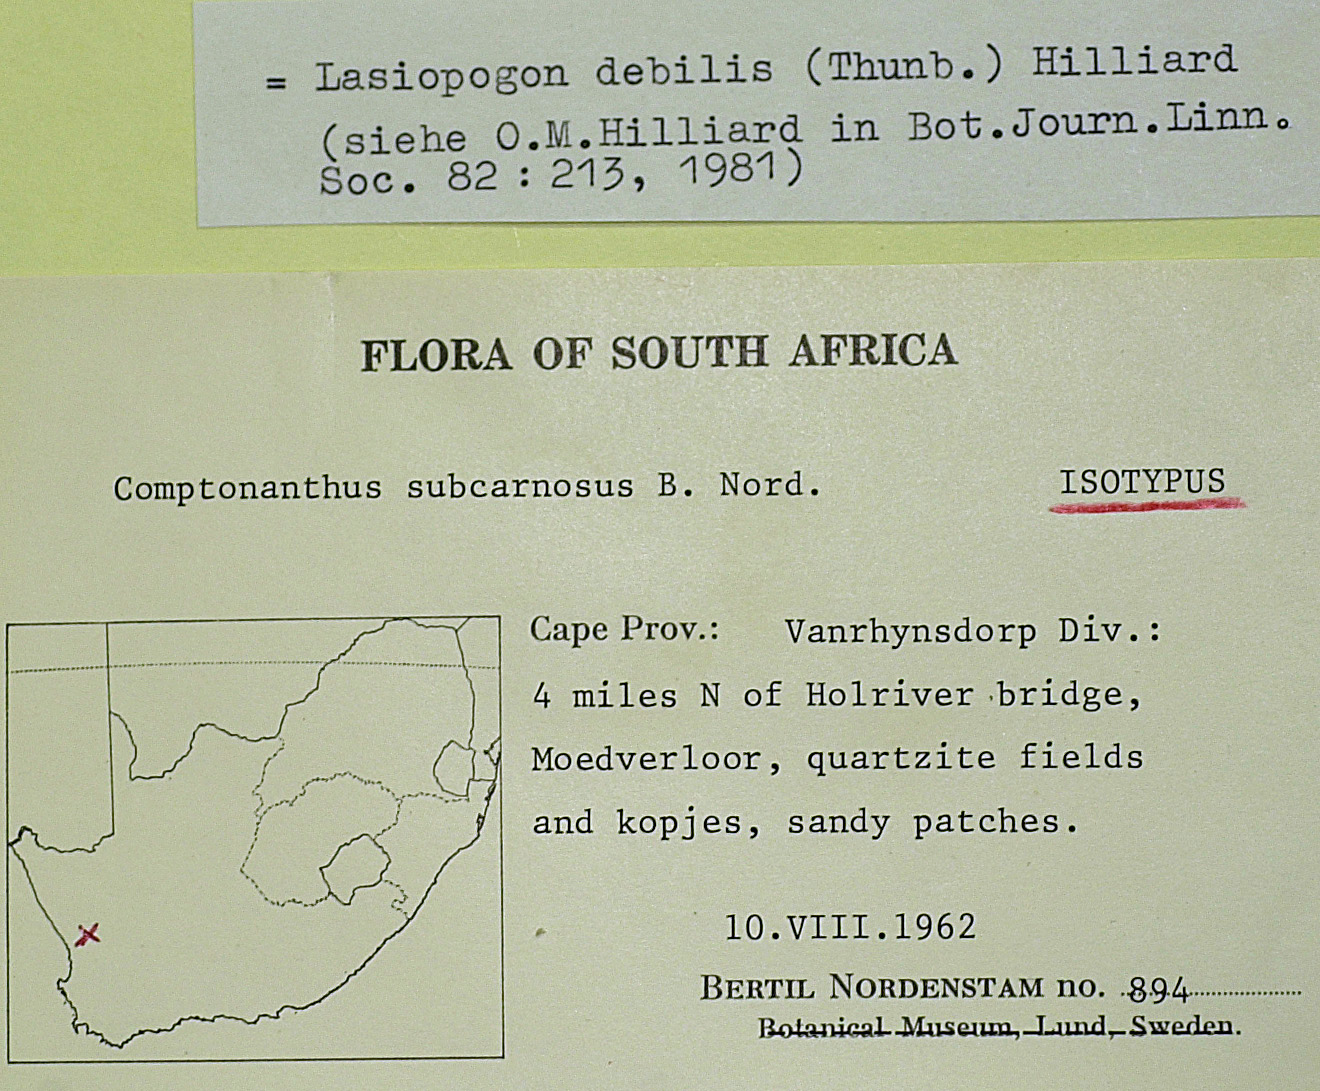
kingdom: Plantae
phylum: Tracheophyta
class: Magnoliopsida
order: Asterales
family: Asteraceae
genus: Lasiopogon
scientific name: Lasiopogon debilis
